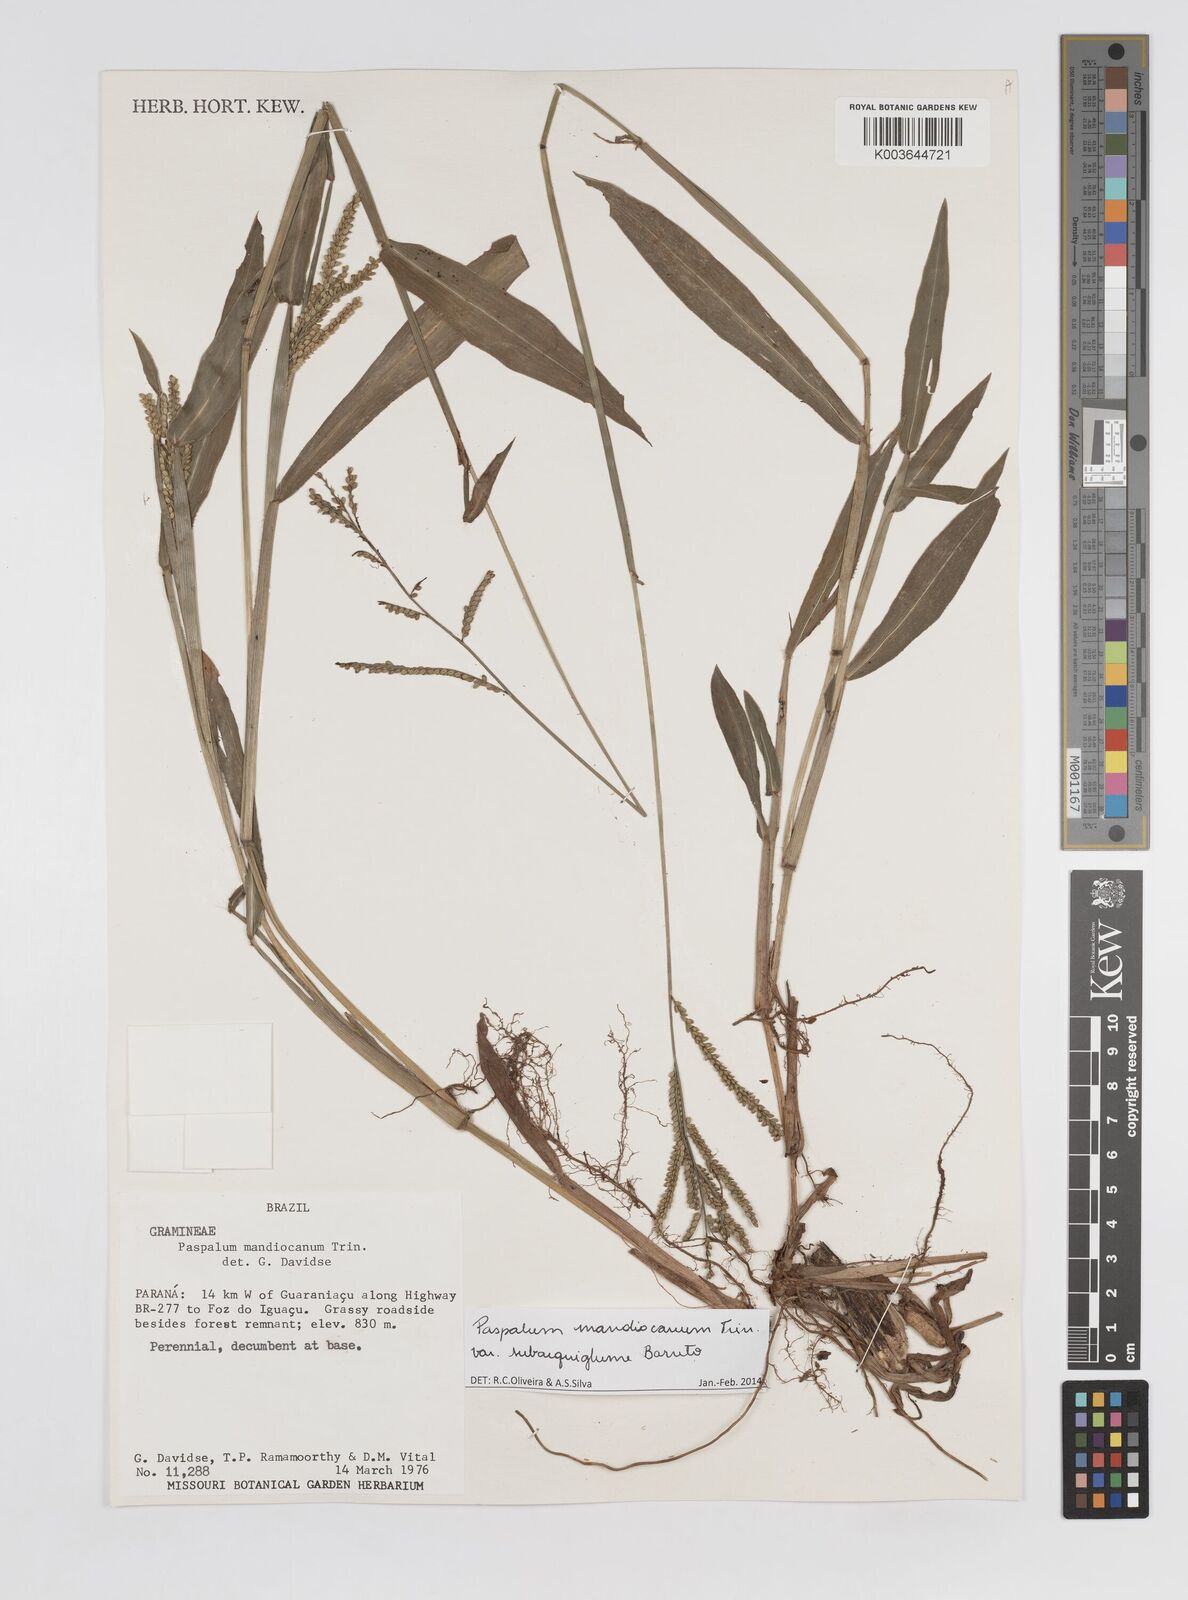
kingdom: Plantae
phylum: Tracheophyta
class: Liliopsida
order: Poales
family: Poaceae
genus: Paspalum
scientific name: Paspalum mandiocanum
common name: Paspalum
